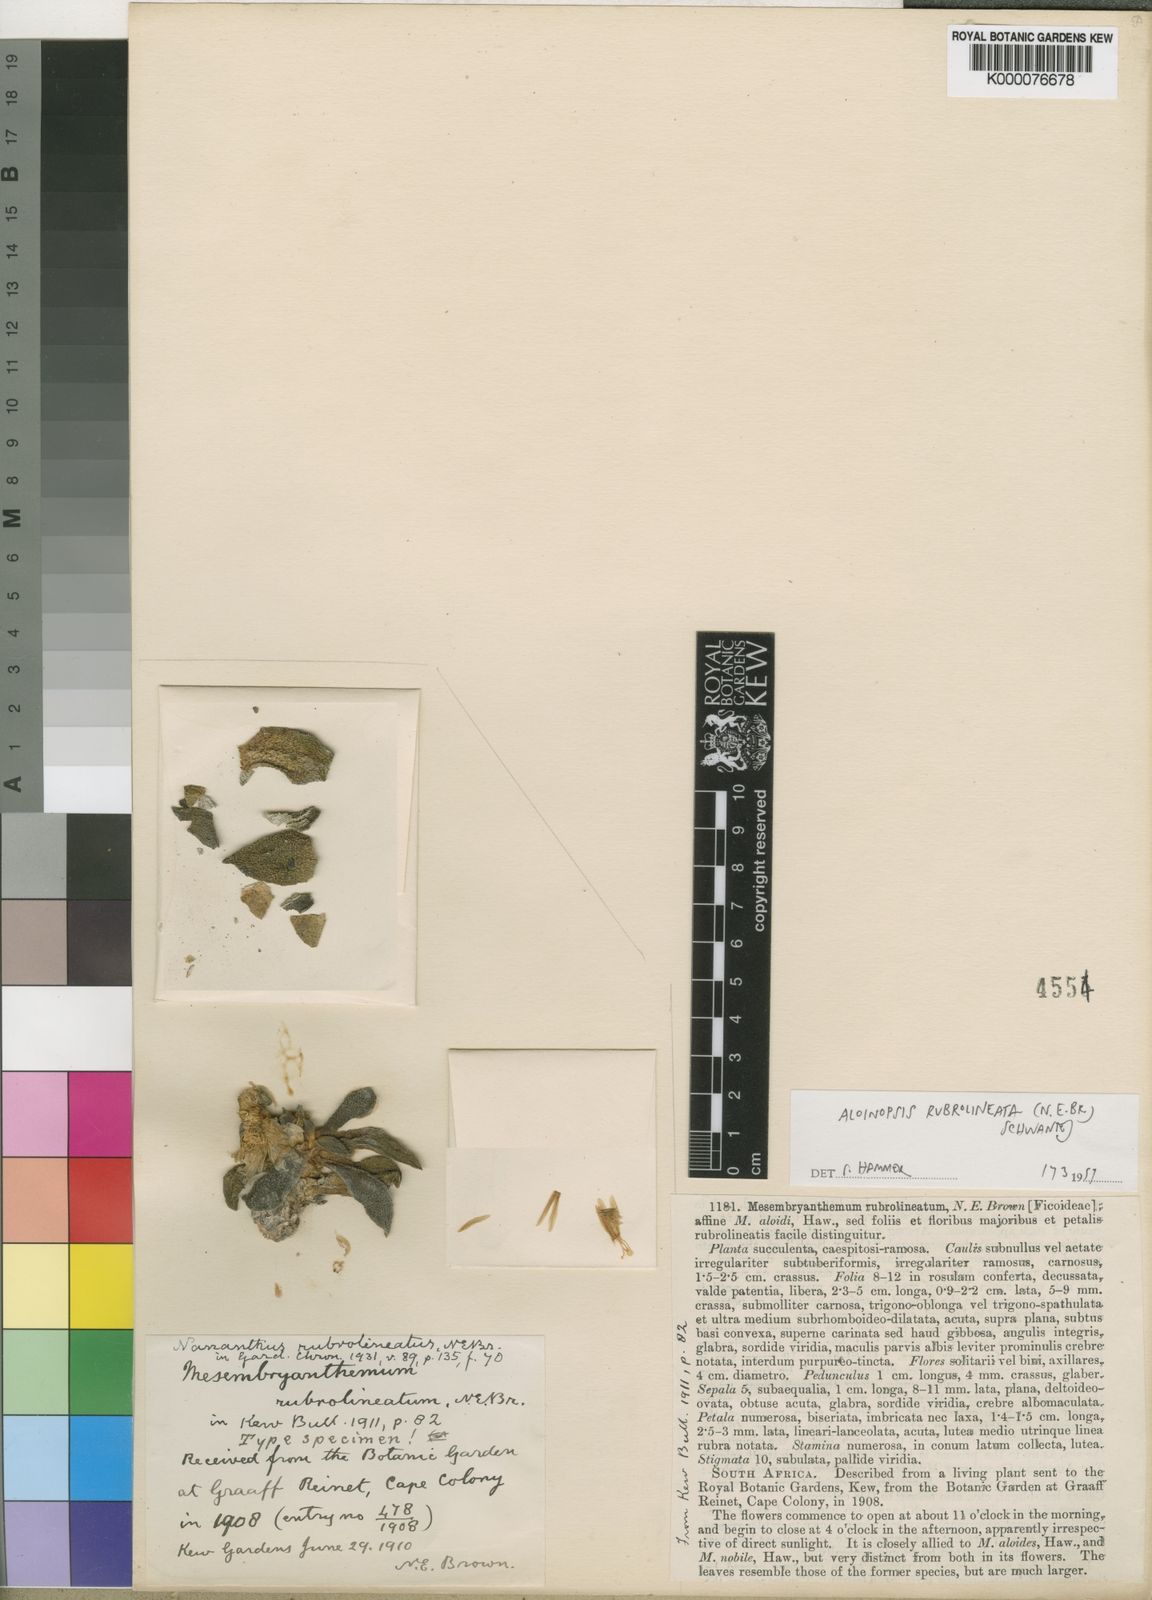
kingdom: Plantae
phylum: Tracheophyta
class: Magnoliopsida
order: Caryophyllales
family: Aizoaceae
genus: Aloinopsis
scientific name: Aloinopsis rubrolineata
